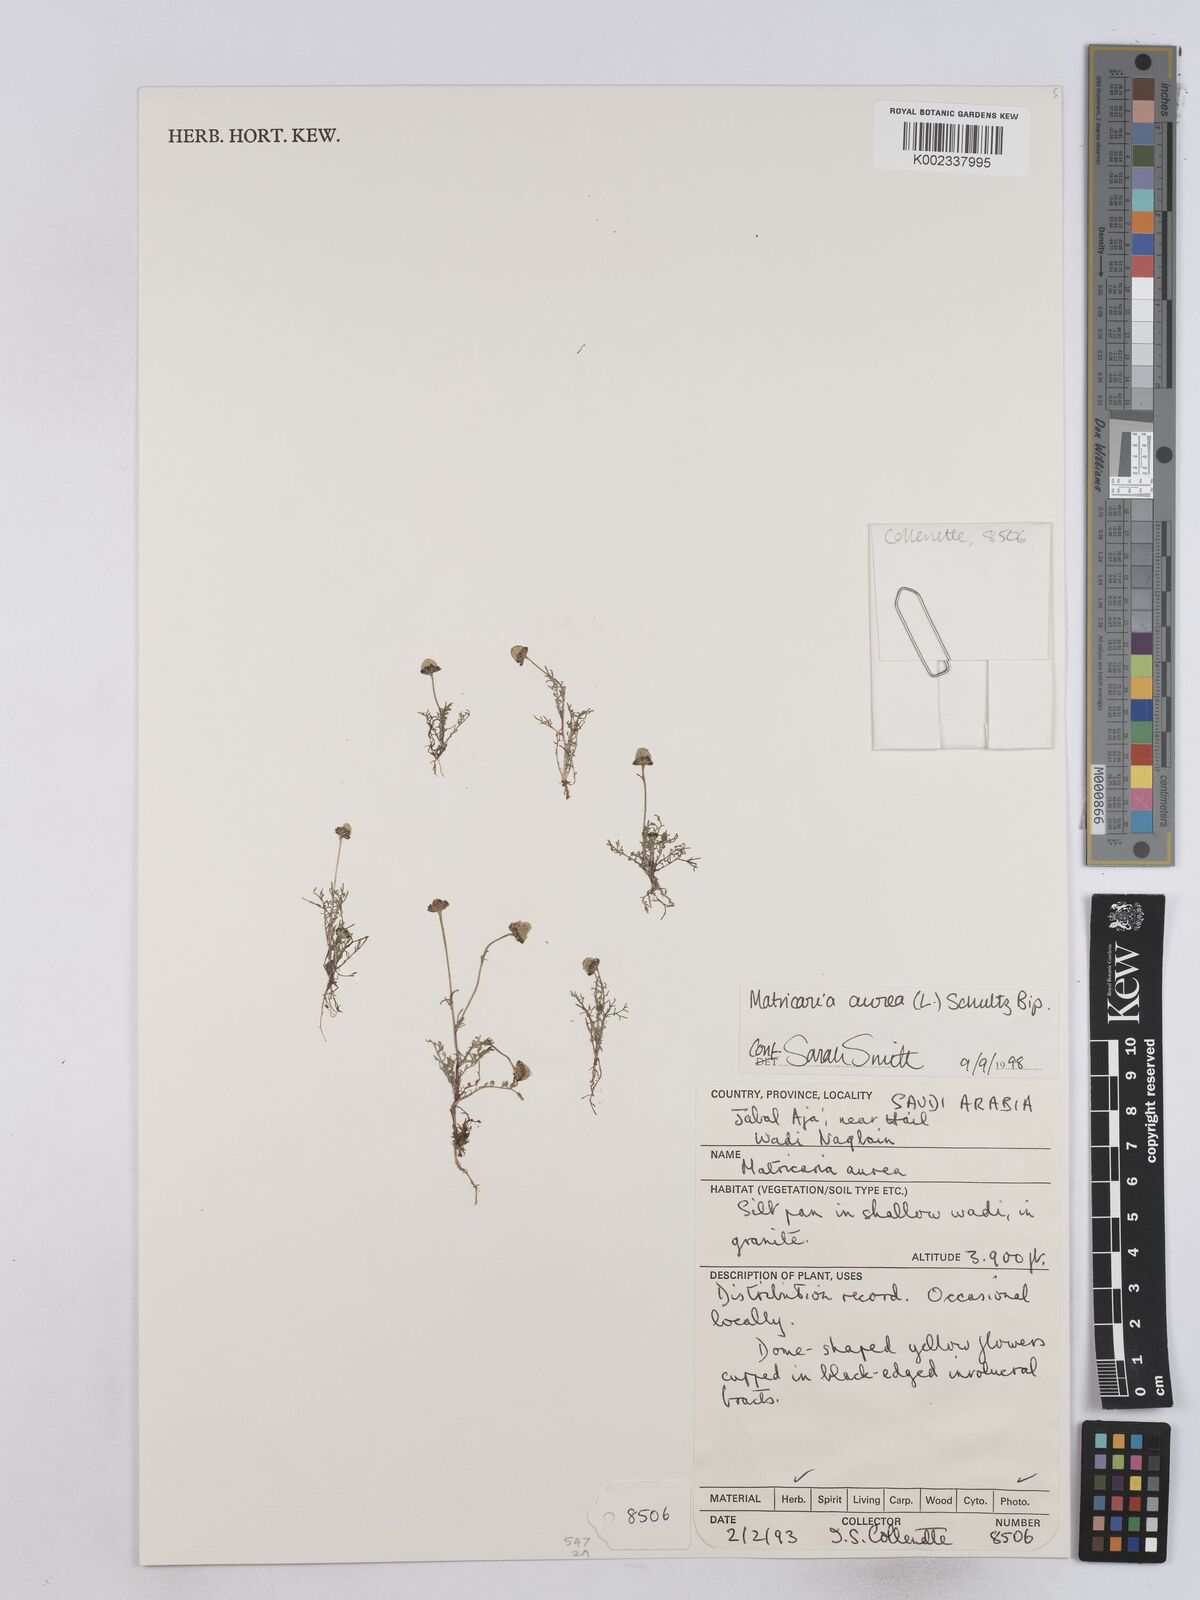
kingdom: Plantae
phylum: Tracheophyta
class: Magnoliopsida
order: Asterales
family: Asteraceae
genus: Matricaria
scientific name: Matricaria aurea
